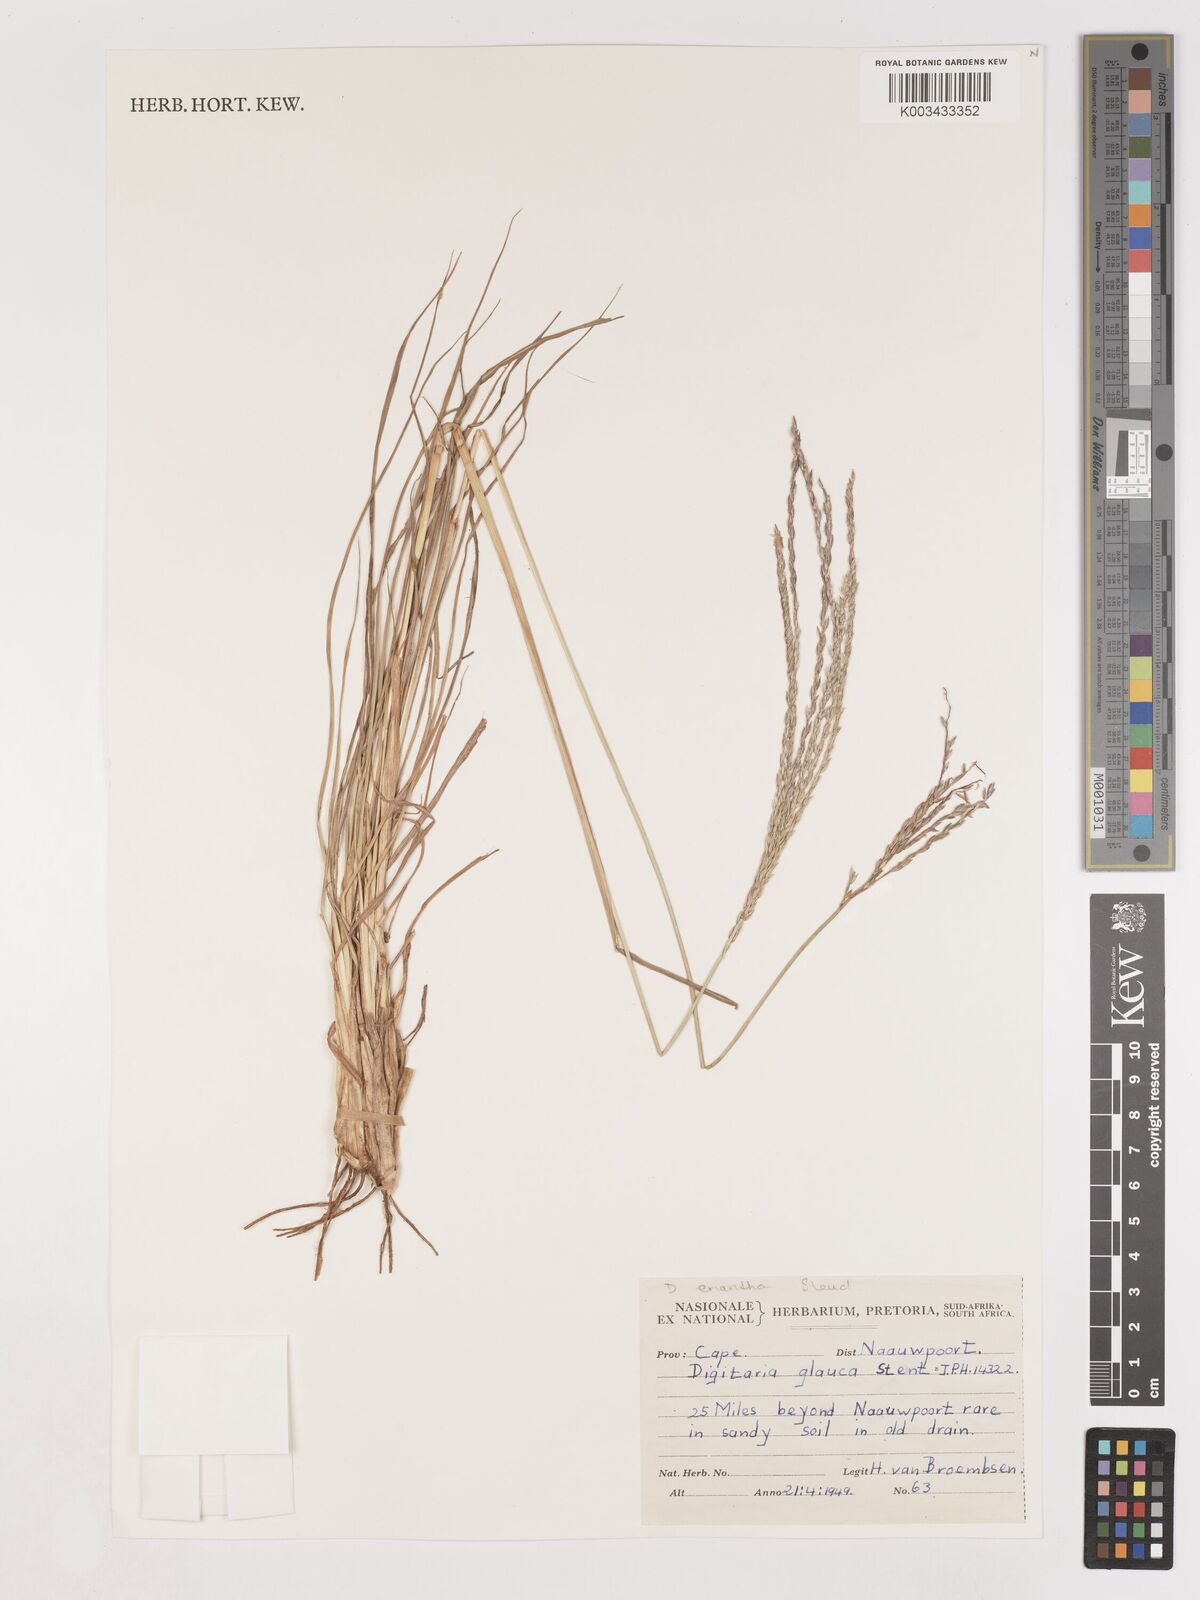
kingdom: Plantae
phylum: Tracheophyta
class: Liliopsida
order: Poales
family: Poaceae
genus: Digitaria
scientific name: Digitaria eriantha
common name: Digitgrass
